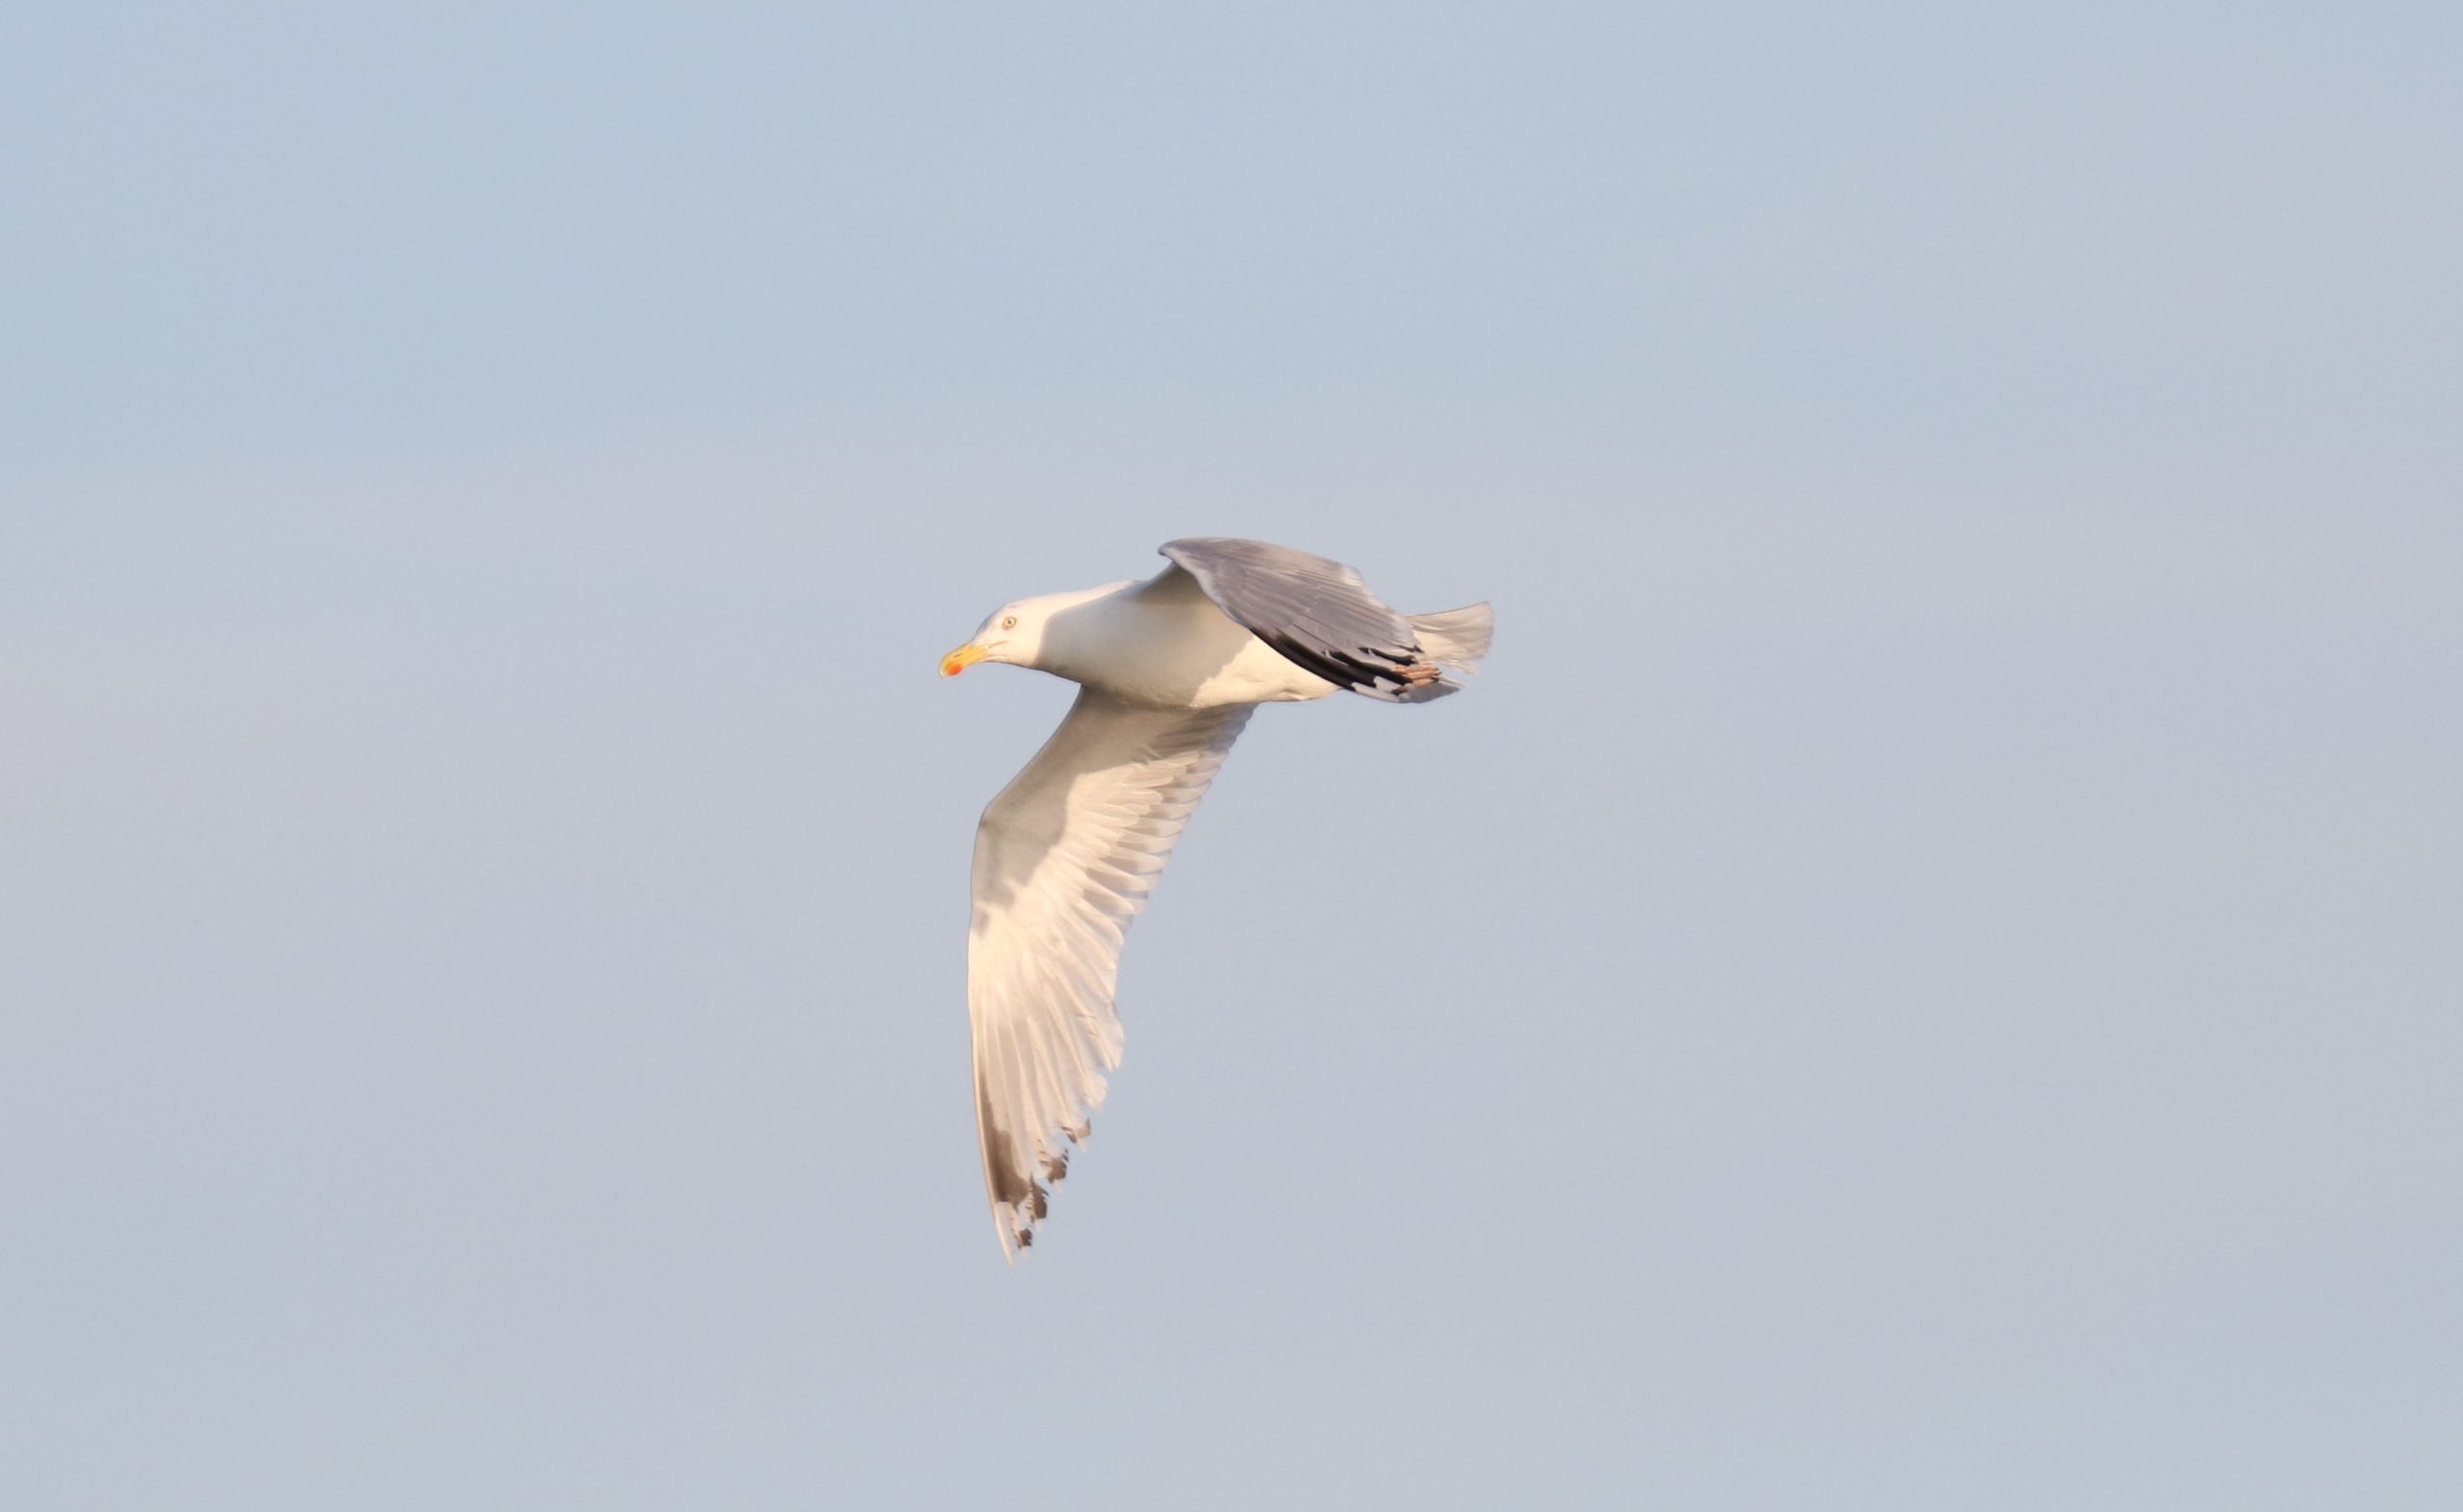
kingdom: Animalia
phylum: Chordata
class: Aves
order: Charadriiformes
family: Laridae
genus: Larus
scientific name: Larus argentatus
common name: Sølvmåge
